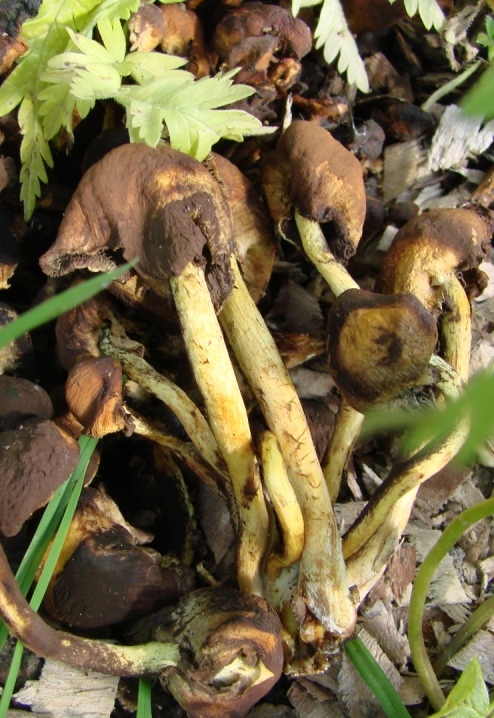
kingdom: Fungi
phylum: Basidiomycota
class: Agaricomycetes
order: Agaricales
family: Strophariaceae
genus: Hypholoma
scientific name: Hypholoma fasciculare
